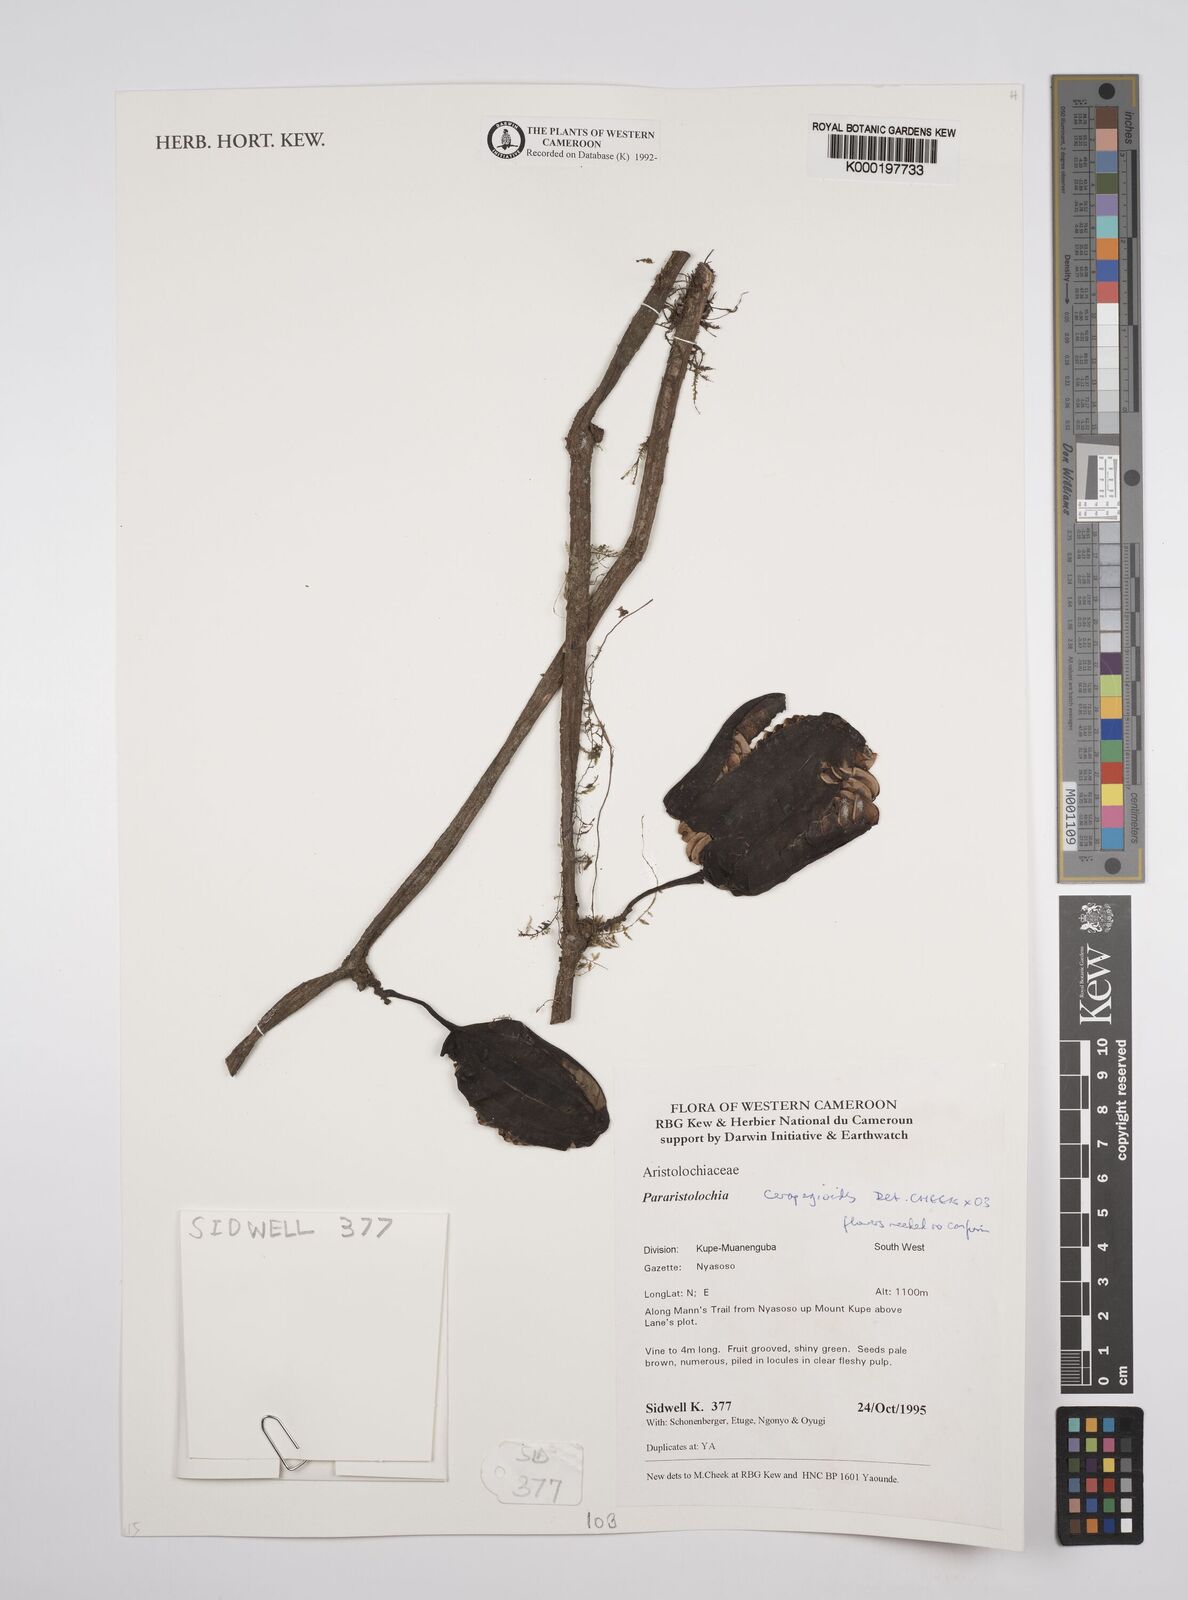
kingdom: Plantae
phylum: Tracheophyta
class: Magnoliopsida
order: Piperales
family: Aristolochiaceae
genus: Aristolochia
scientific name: Aristolochia ceropegioides
